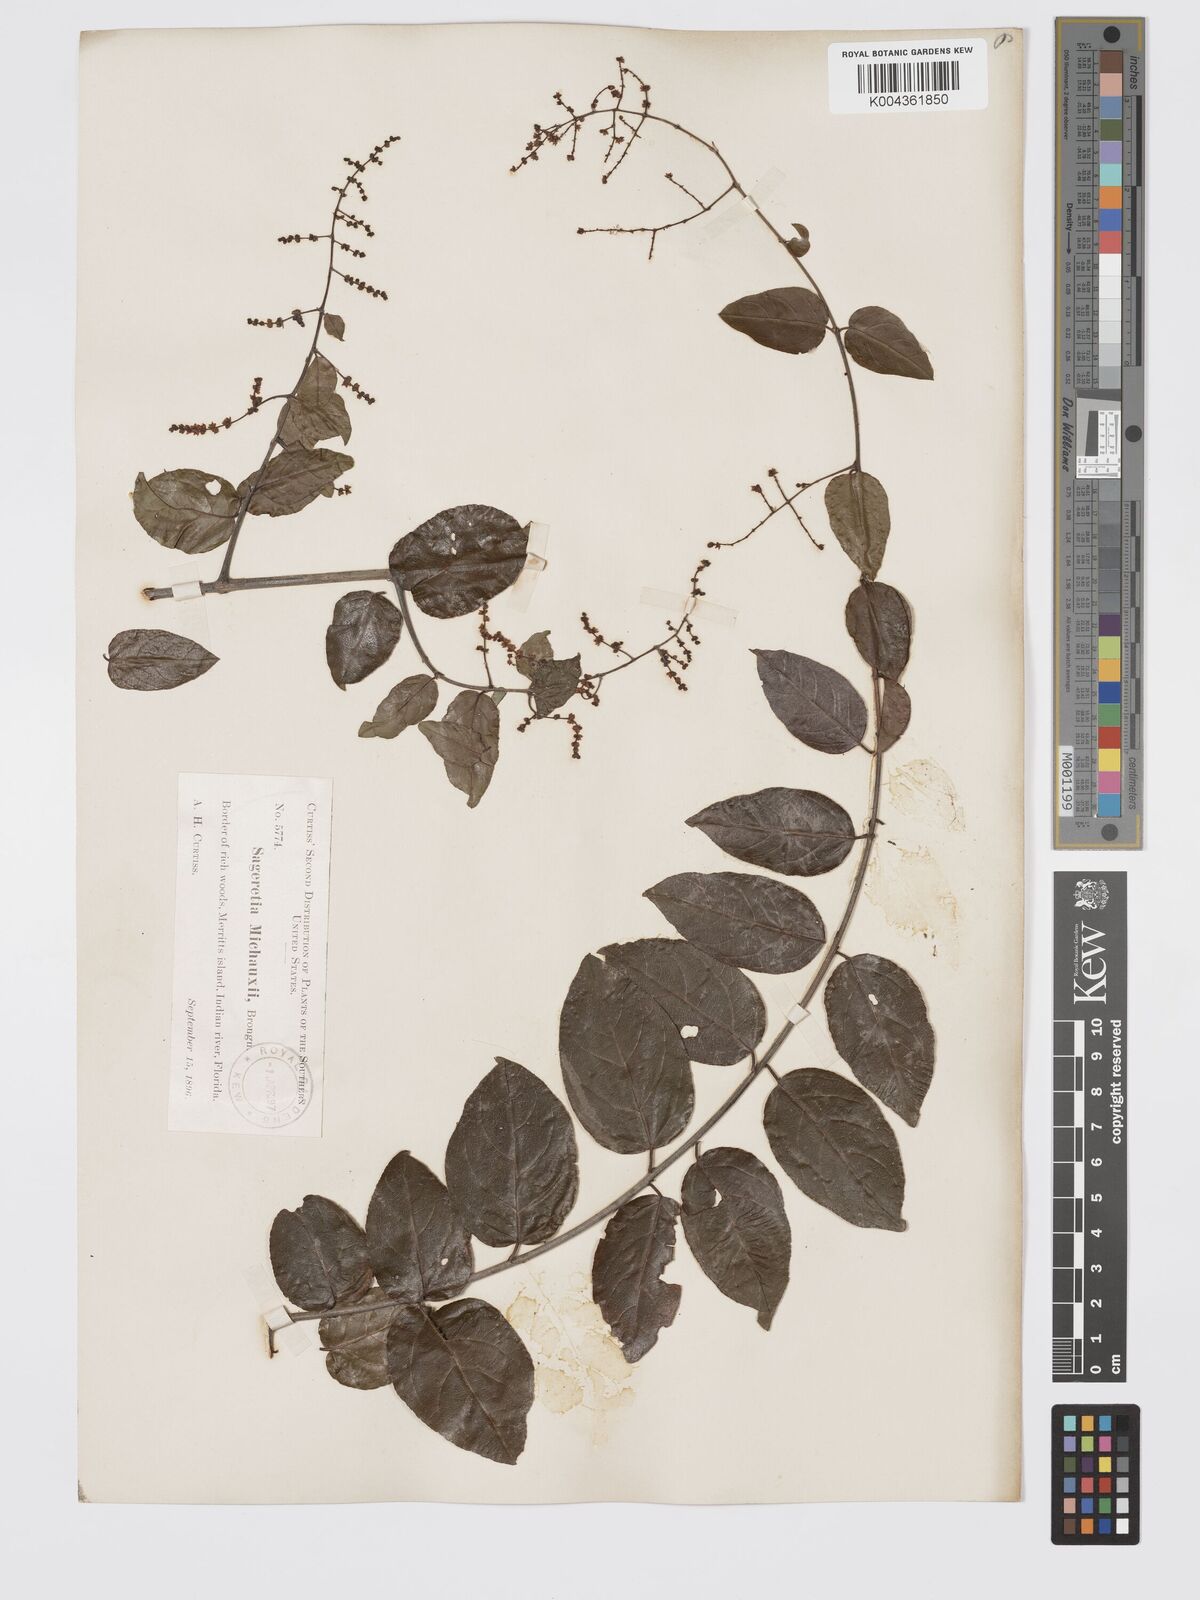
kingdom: Plantae
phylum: Tracheophyta
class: Magnoliopsida
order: Rosales
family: Rhamnaceae
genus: Sageretia
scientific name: Sageretia
